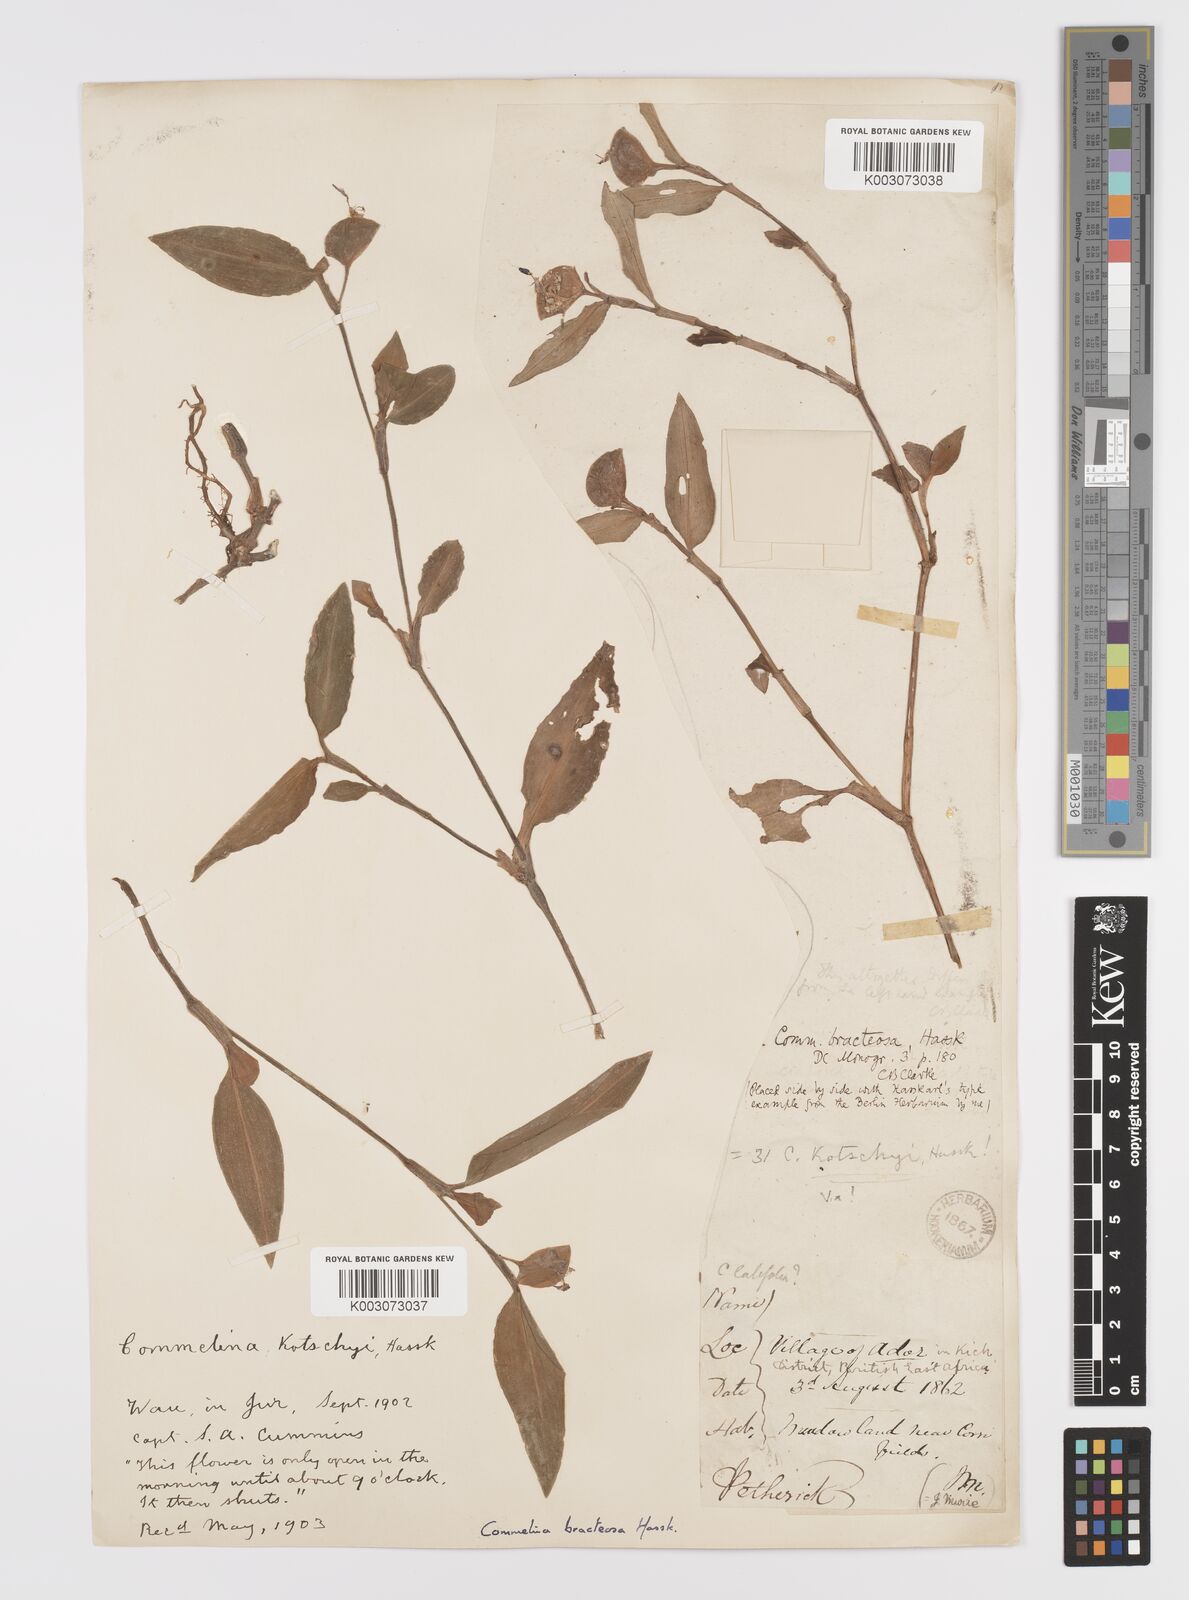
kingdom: Plantae
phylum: Tracheophyta
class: Liliopsida
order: Commelinales
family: Commelinaceae
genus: Commelina
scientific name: Commelina bracteosa
